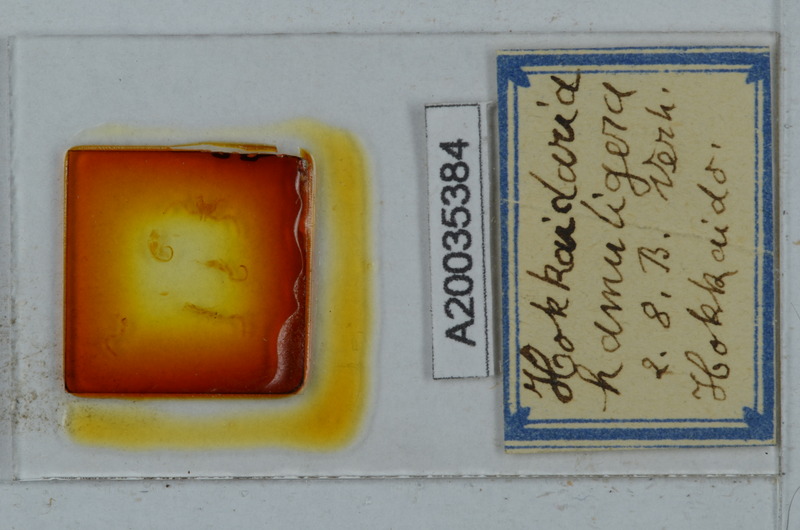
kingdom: Animalia
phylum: Arthropoda
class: Diplopoda
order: Polydesmida
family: Xystodesmidae
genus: Levizonus
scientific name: Levizonus montanus
